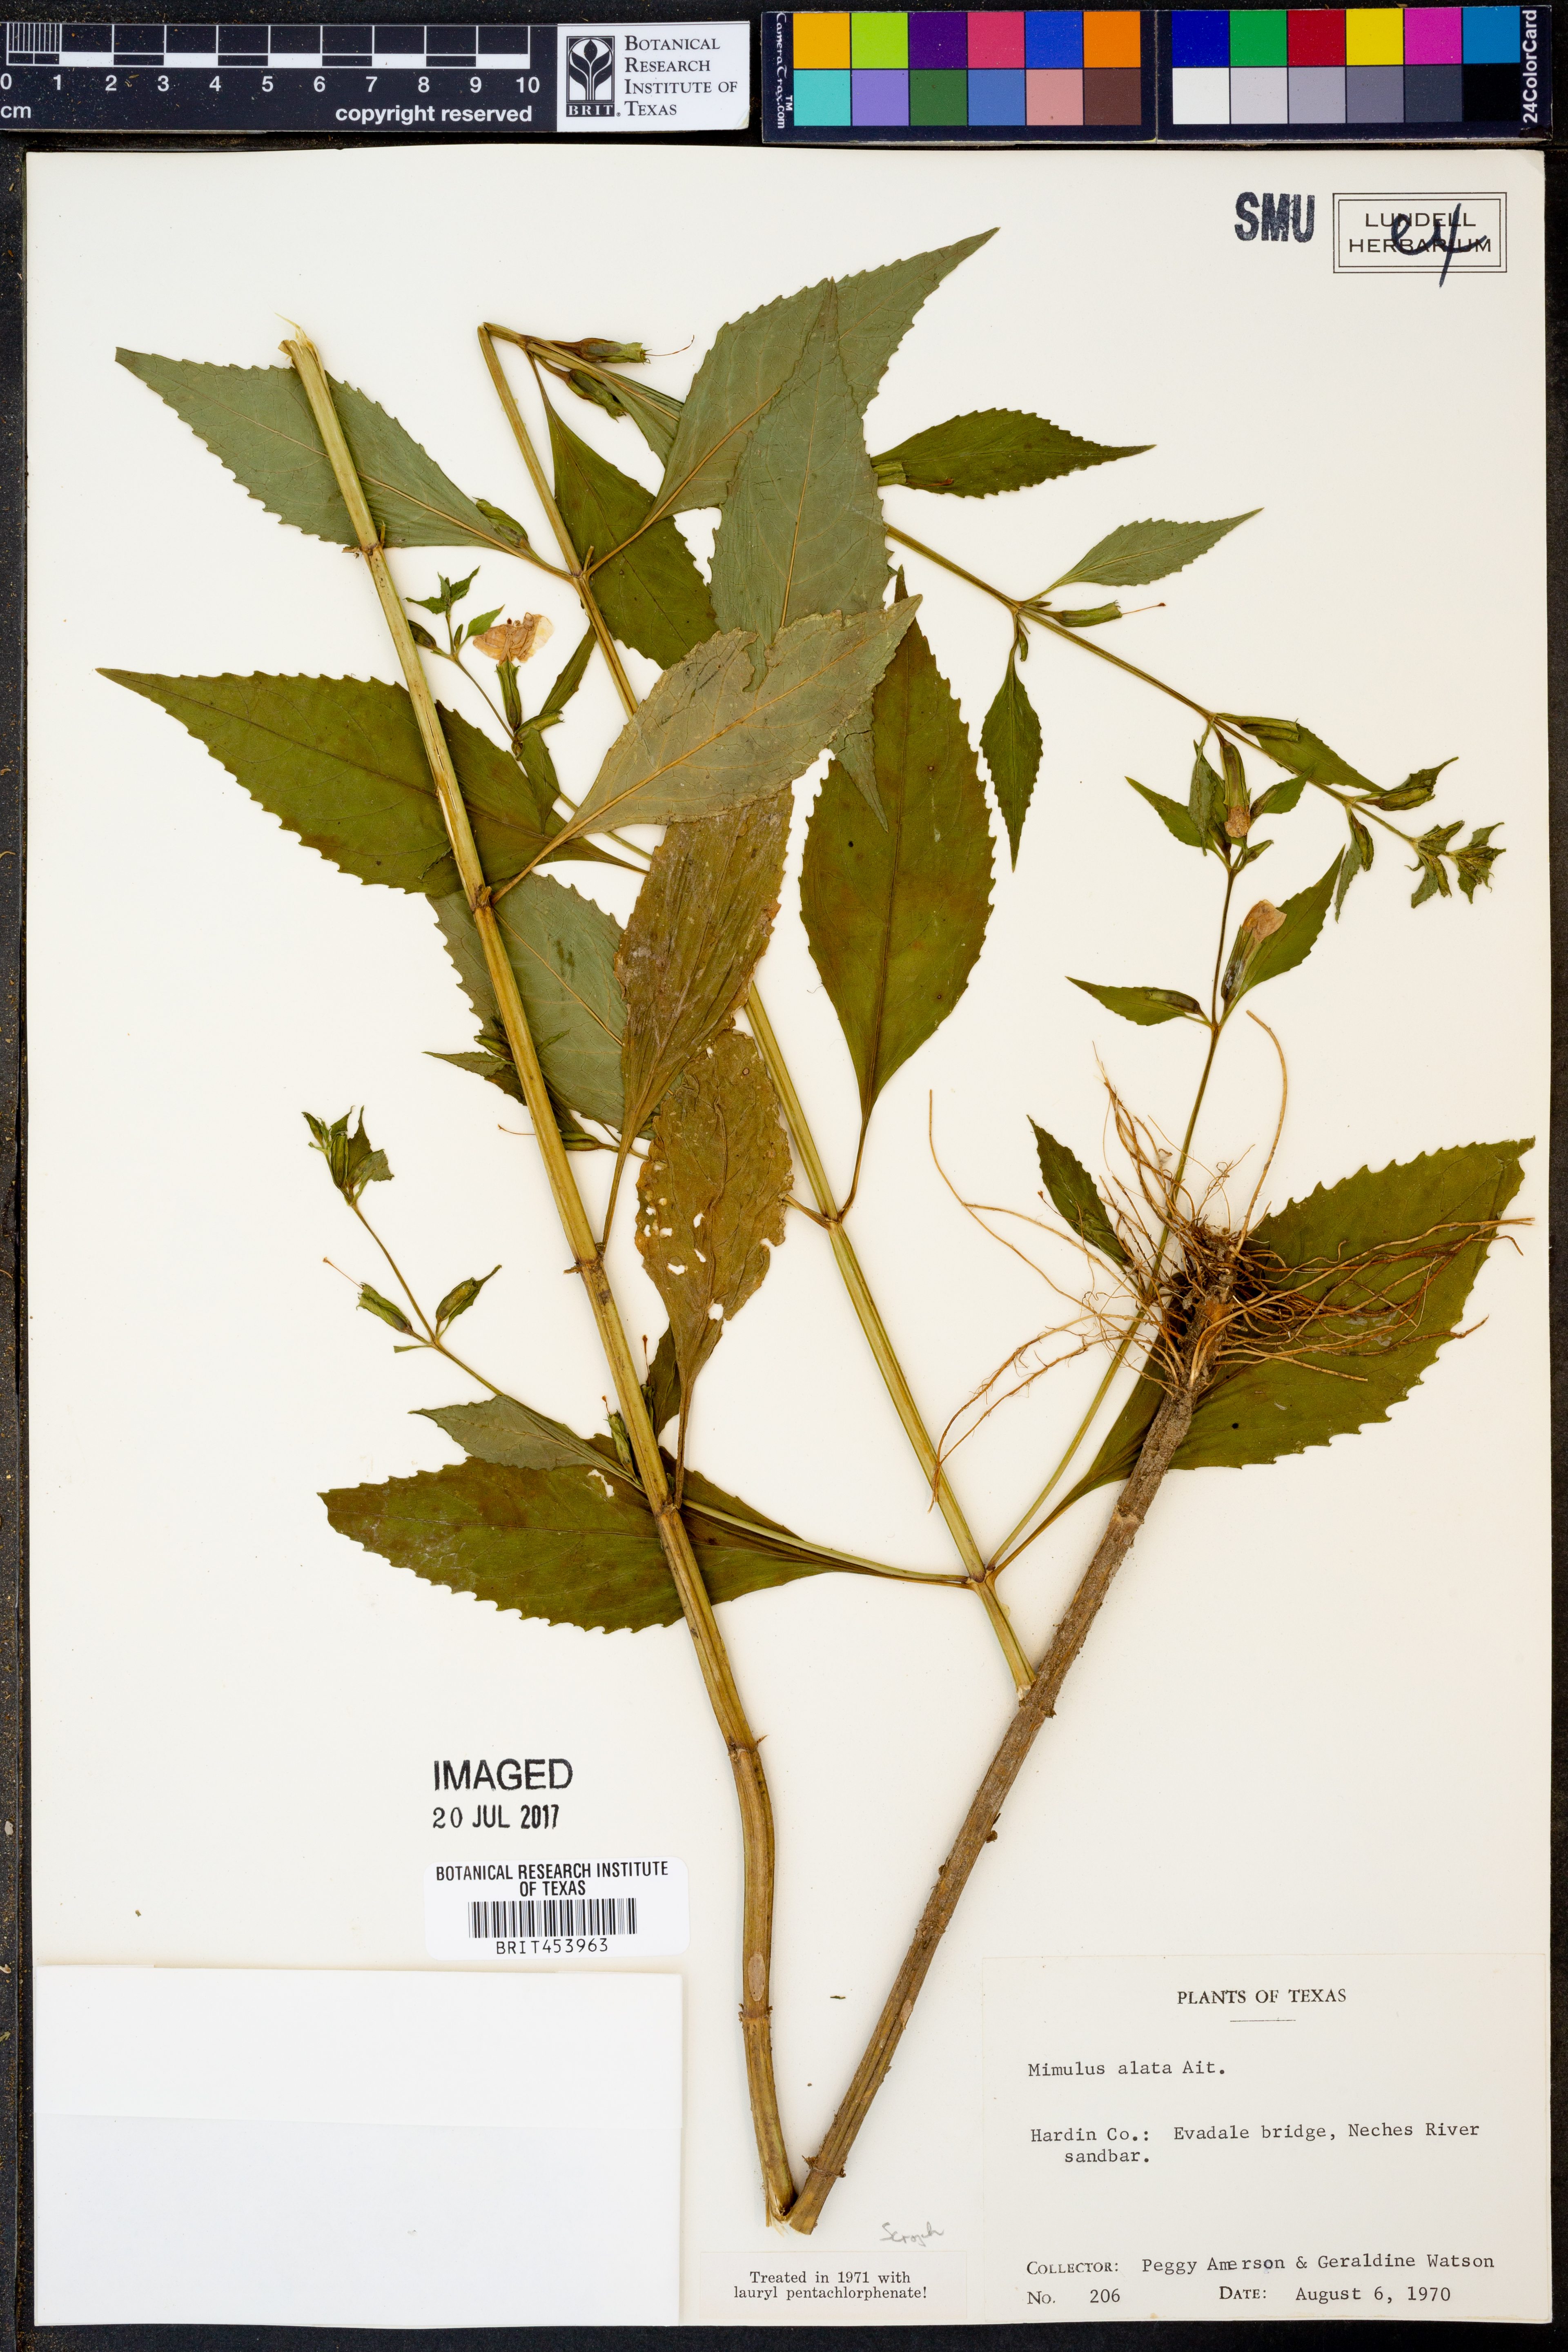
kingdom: Plantae
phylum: Tracheophyta
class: Magnoliopsida
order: Lamiales
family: Phrymaceae
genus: Mimulus
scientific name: Mimulus alatus
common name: Sharp-wing monkey-flower
